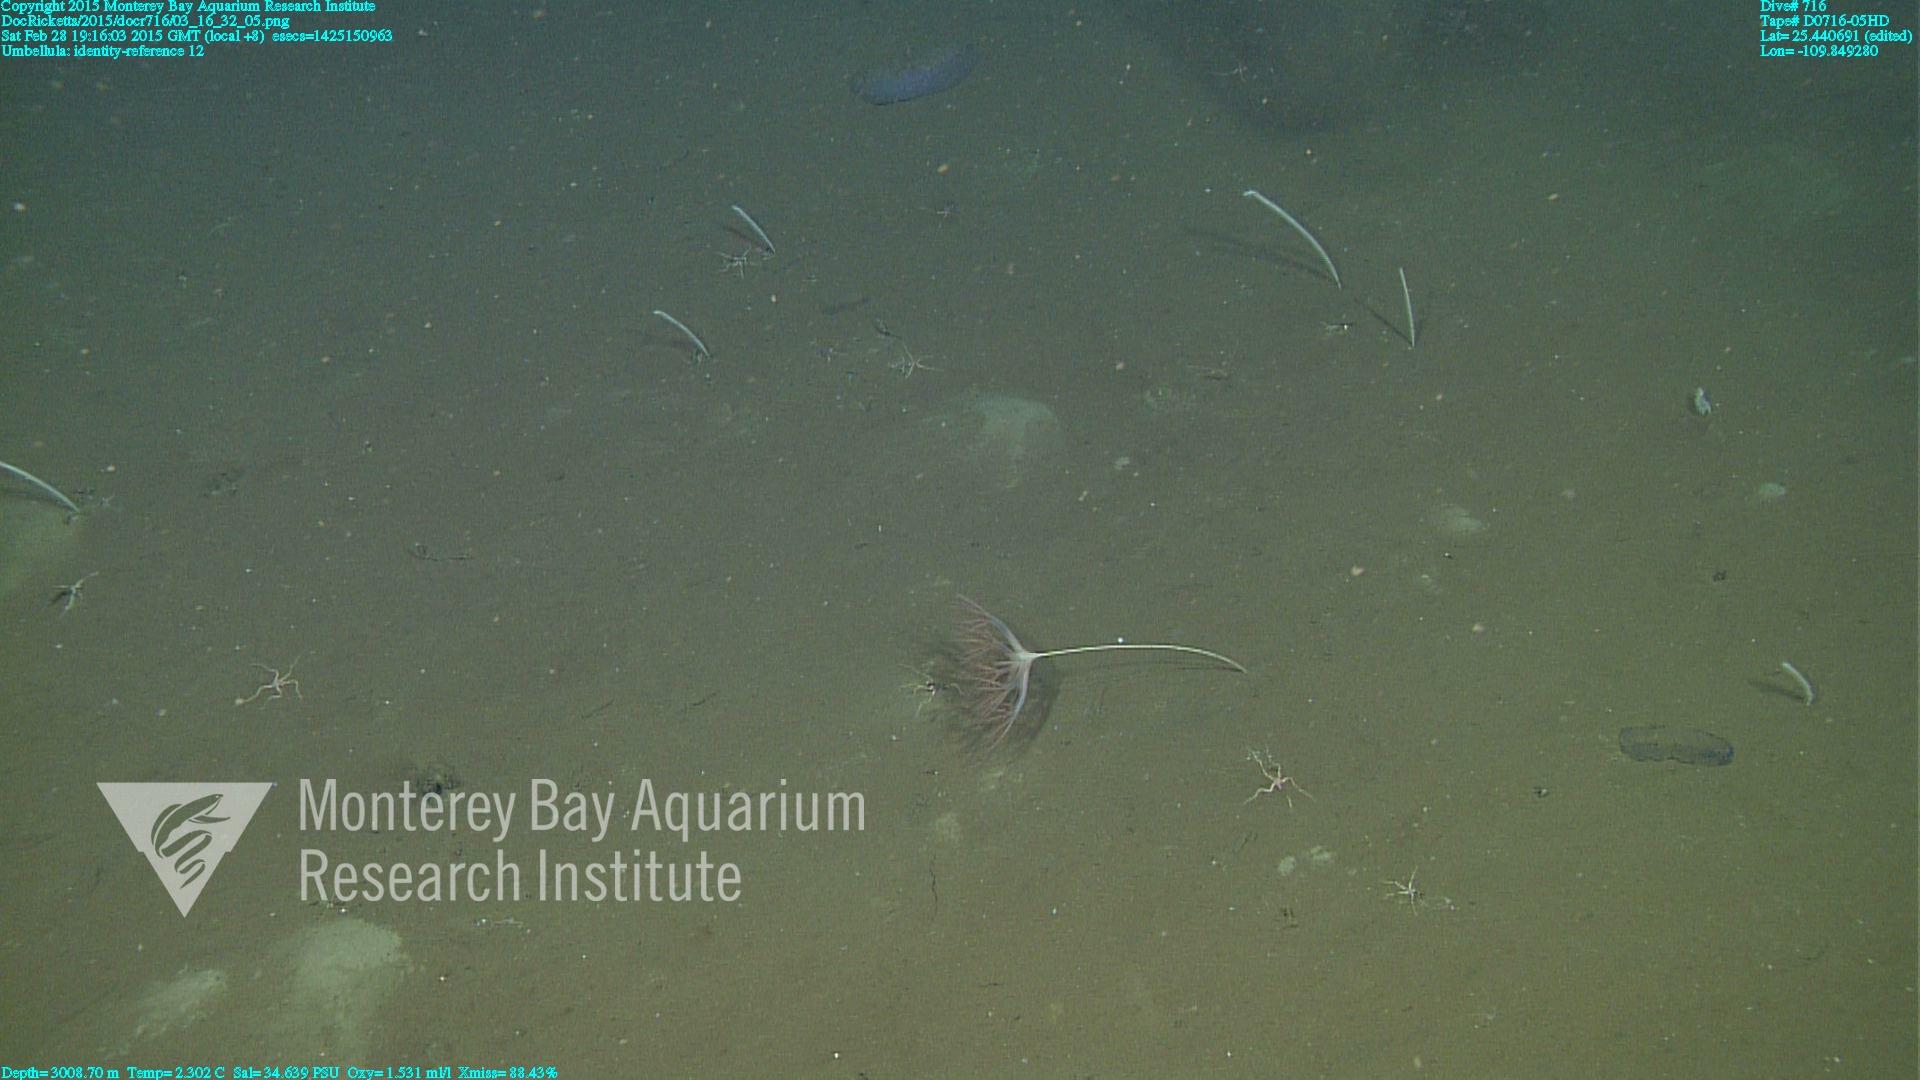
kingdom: Animalia
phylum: Cnidaria
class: Anthozoa
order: Scleralcyonacea
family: Umbellulidae
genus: Umbellula
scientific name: Umbellula
